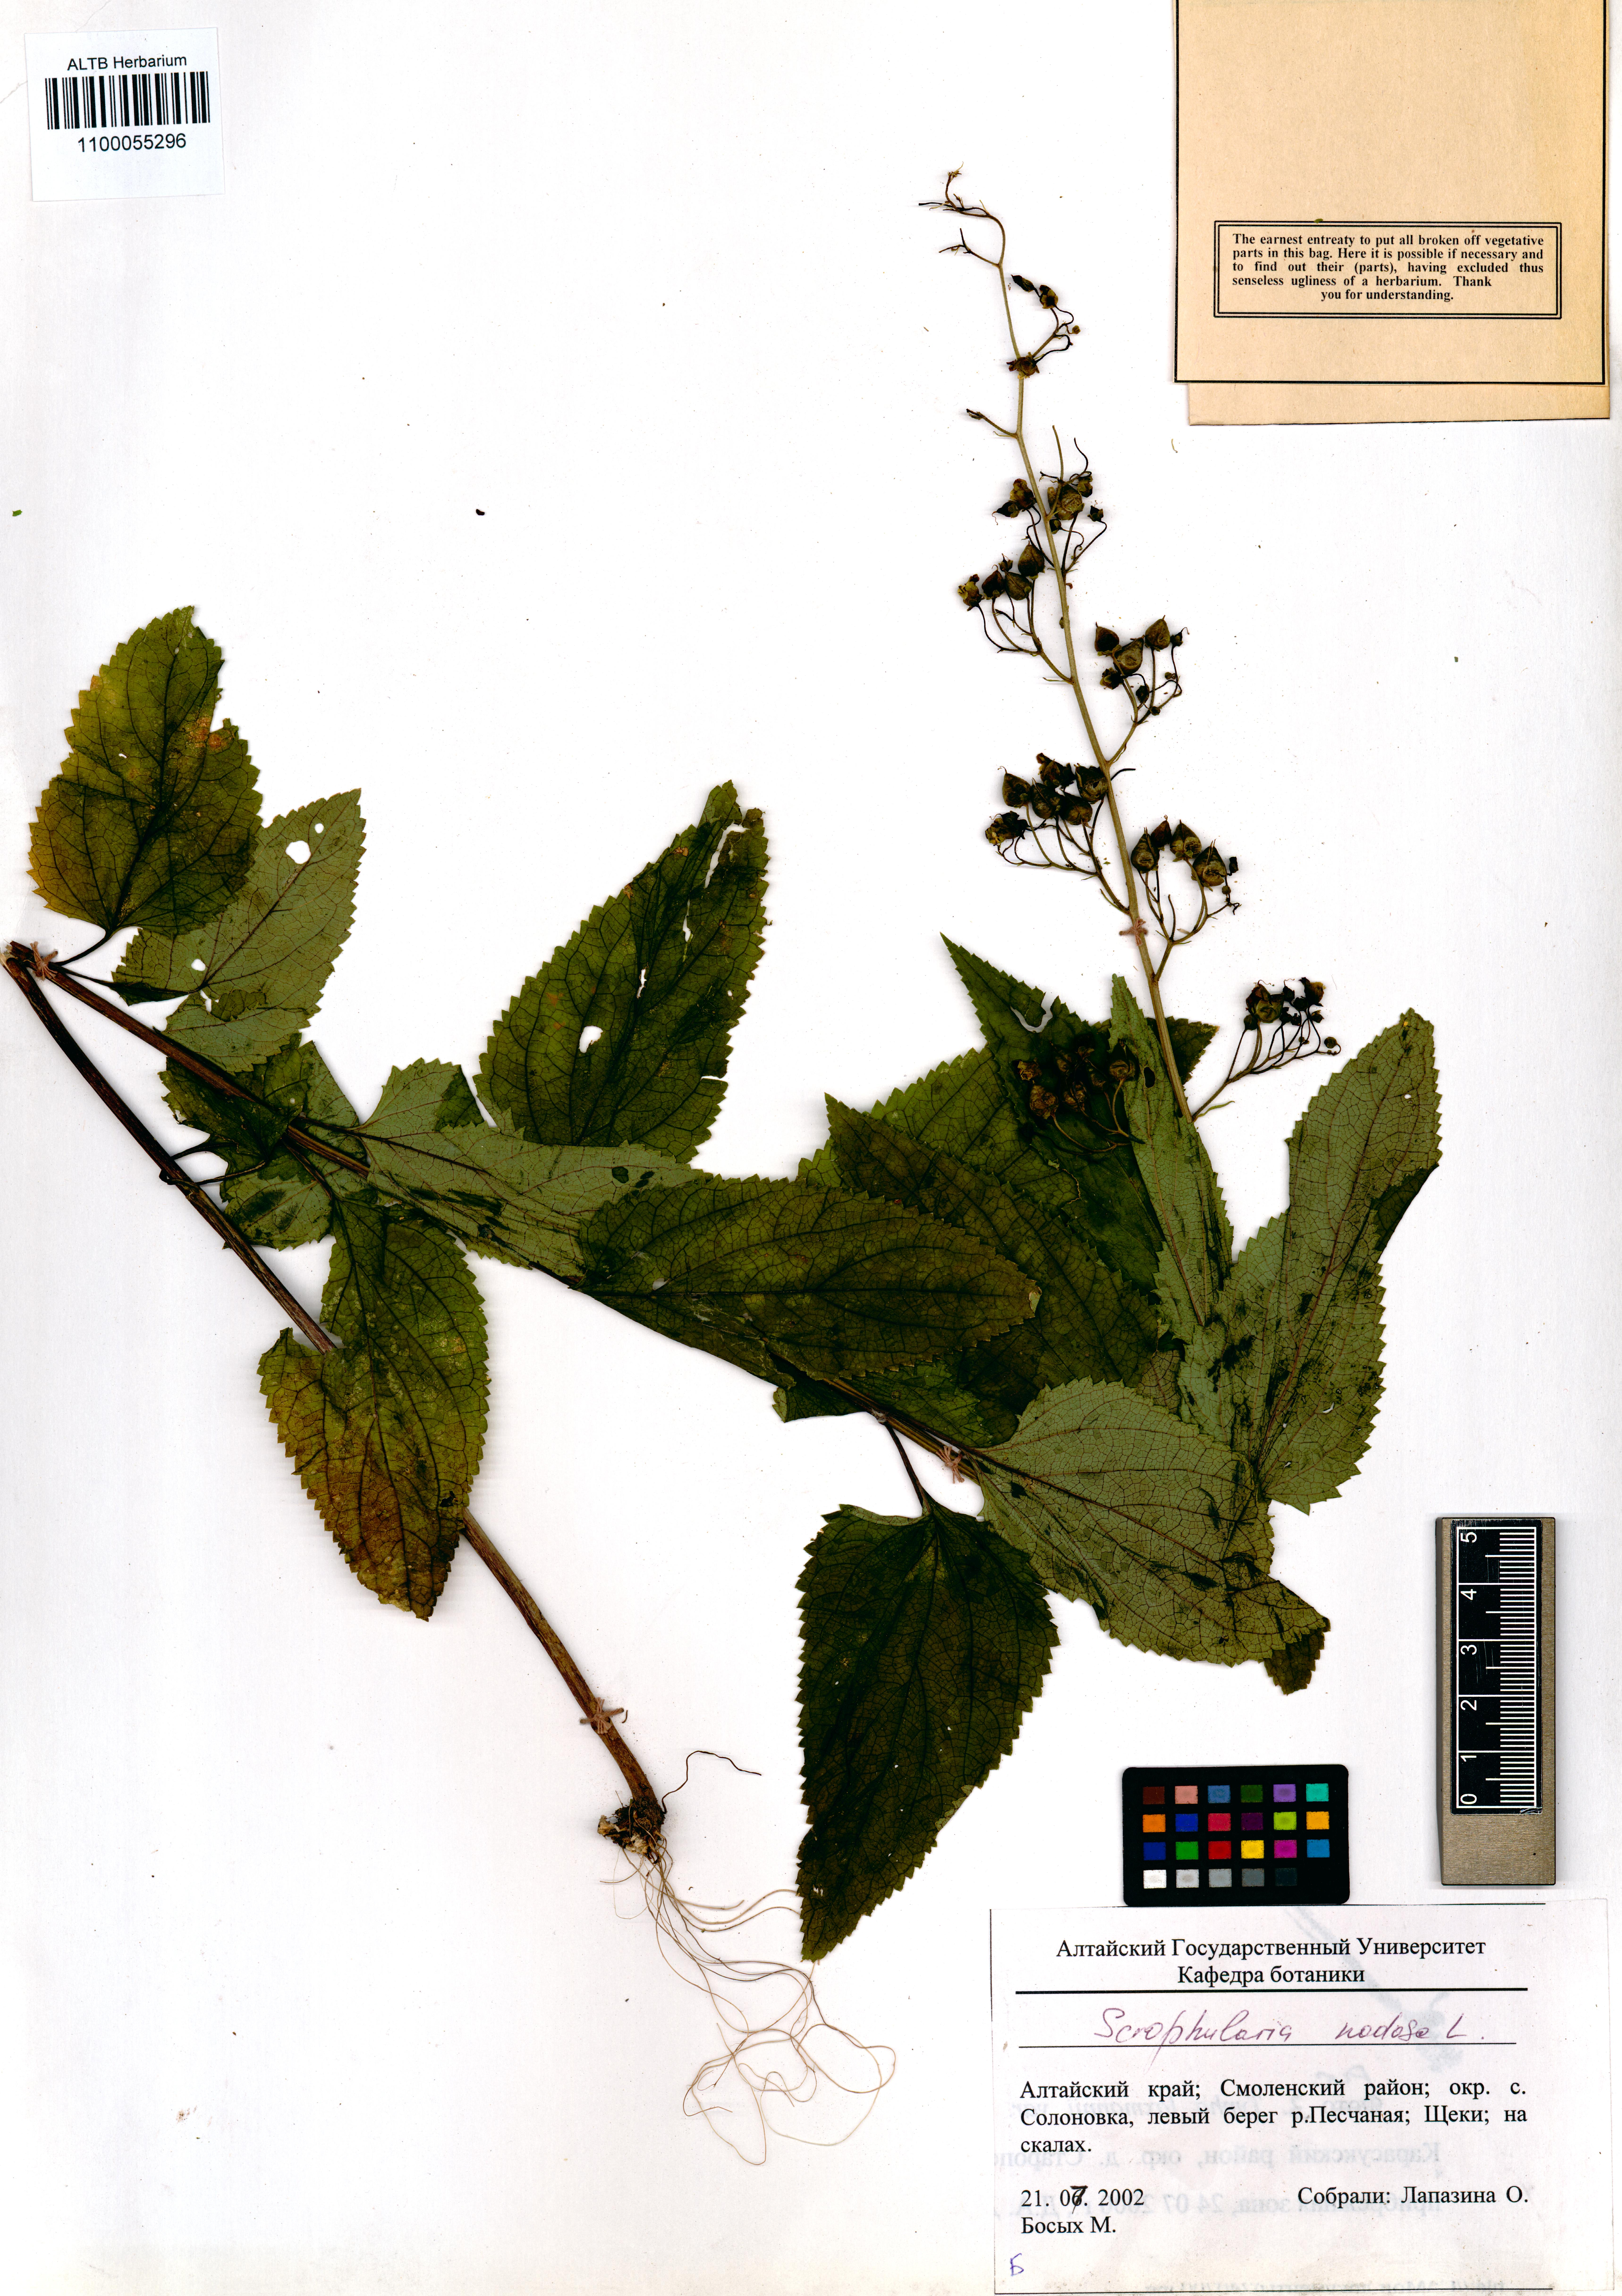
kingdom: Plantae
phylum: Tracheophyta
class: Magnoliopsida
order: Lamiales
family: Scrophulariaceae
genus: Scrophularia
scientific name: Scrophularia nodosa
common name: Common figwort
